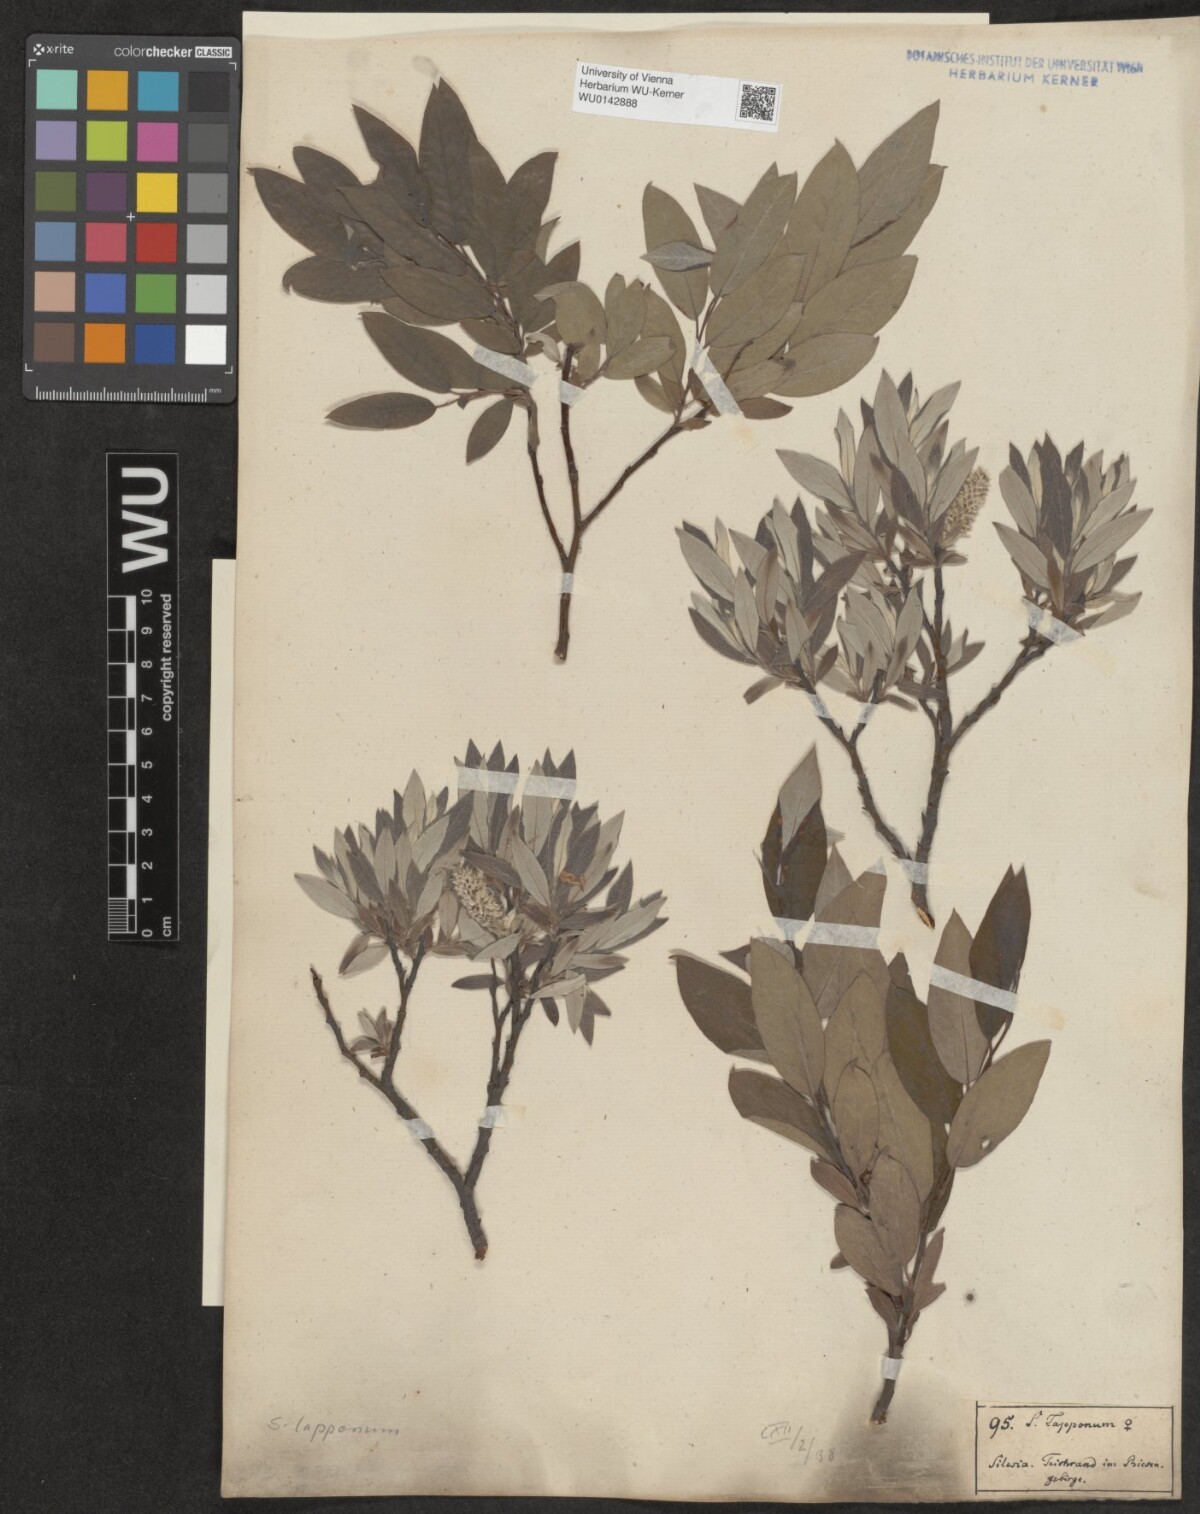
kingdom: Plantae
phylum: Tracheophyta
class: Magnoliopsida
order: Malpighiales
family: Salicaceae
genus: Salix
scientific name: Salix lapponum
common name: Downy willow
